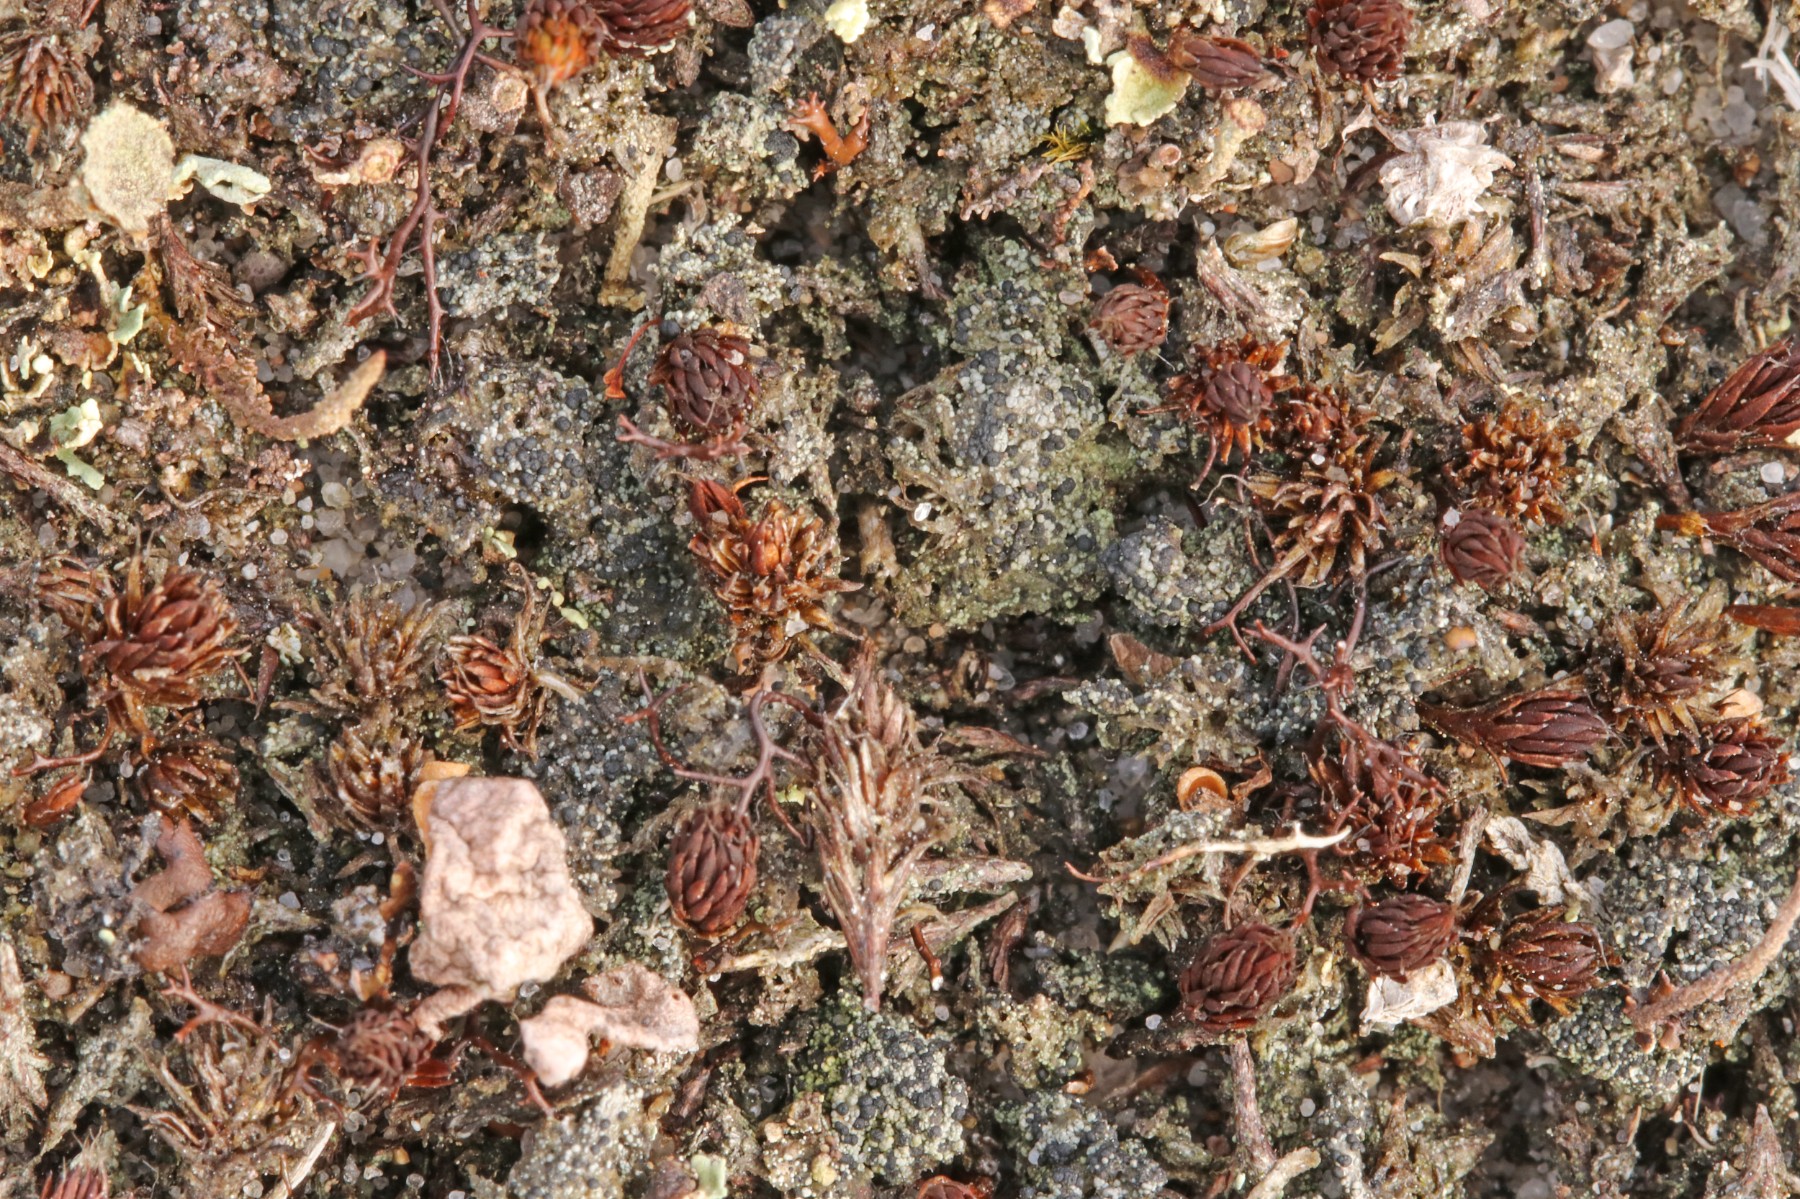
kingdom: Fungi
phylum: Ascomycota
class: Lecanoromycetes
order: Lecanorales
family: Byssolomataceae
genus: Micarea
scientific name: Micarea lignaria
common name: tørve-knaplav
